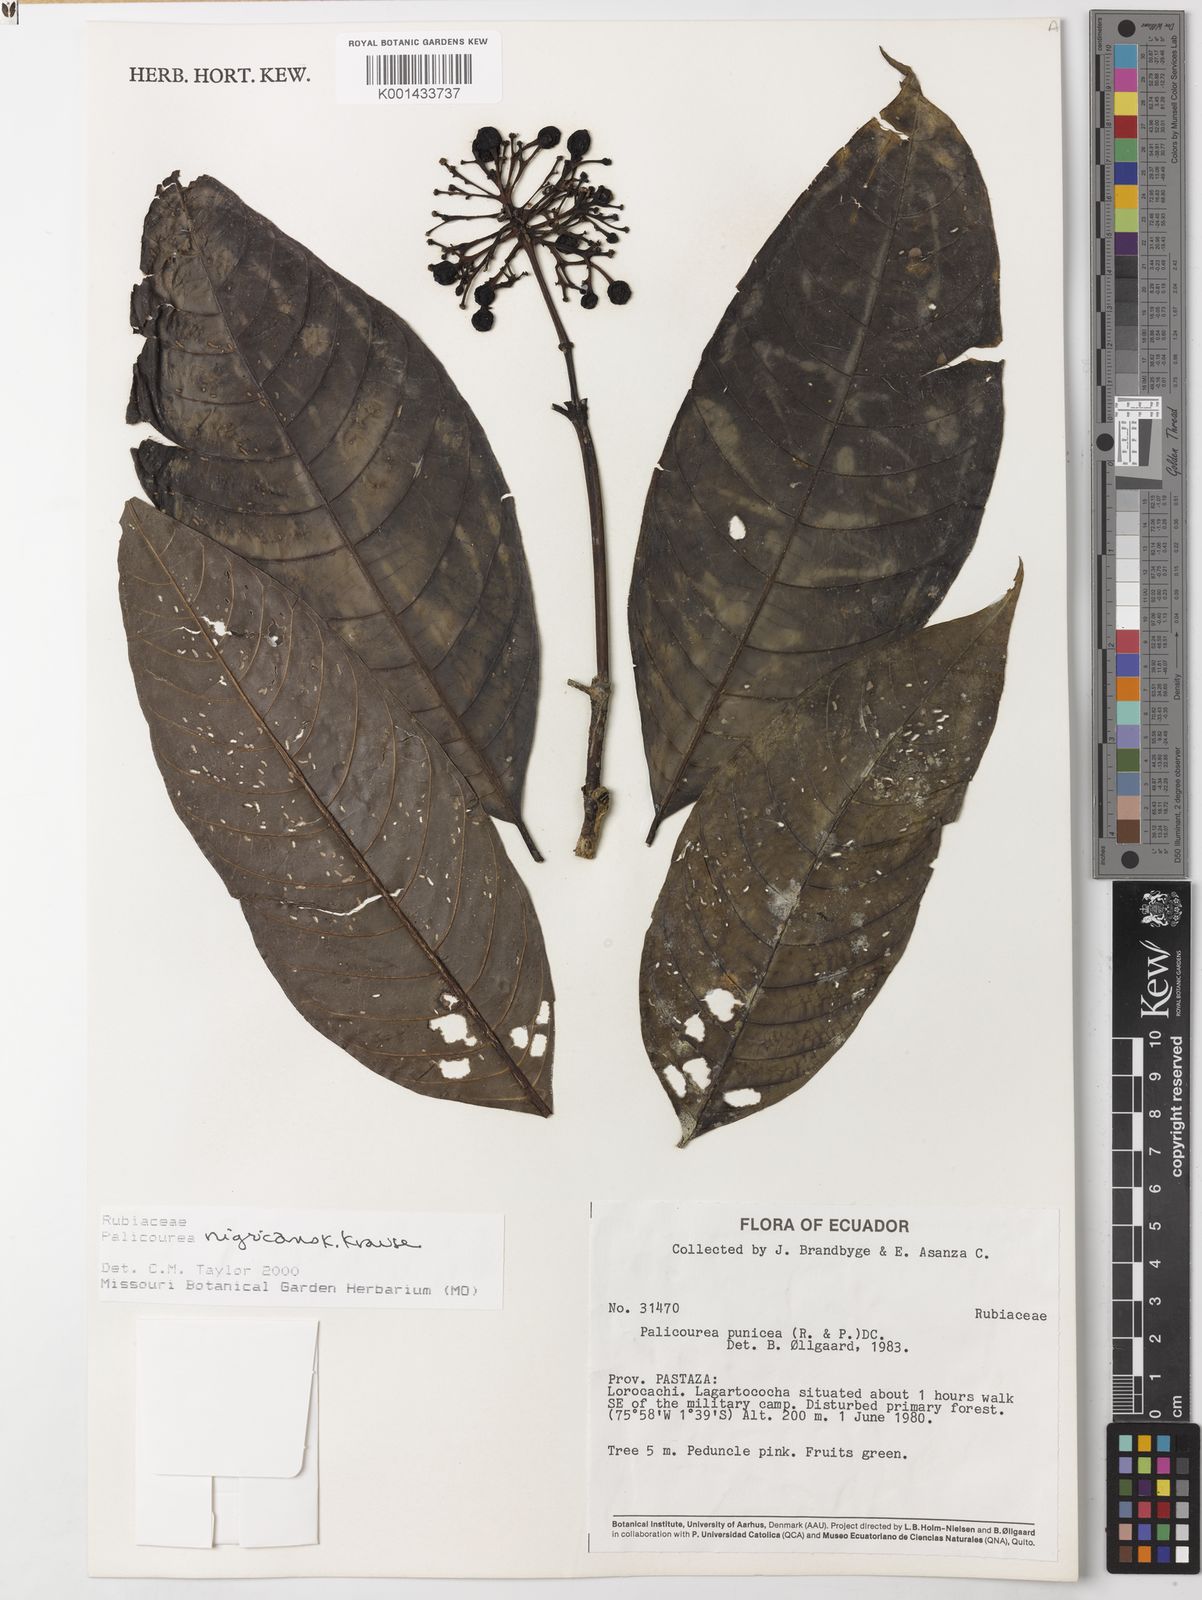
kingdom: Plantae
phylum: Tracheophyta
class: Magnoliopsida
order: Gentianales
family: Rubiaceae
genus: Palicourea
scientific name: Palicourea nigricans
